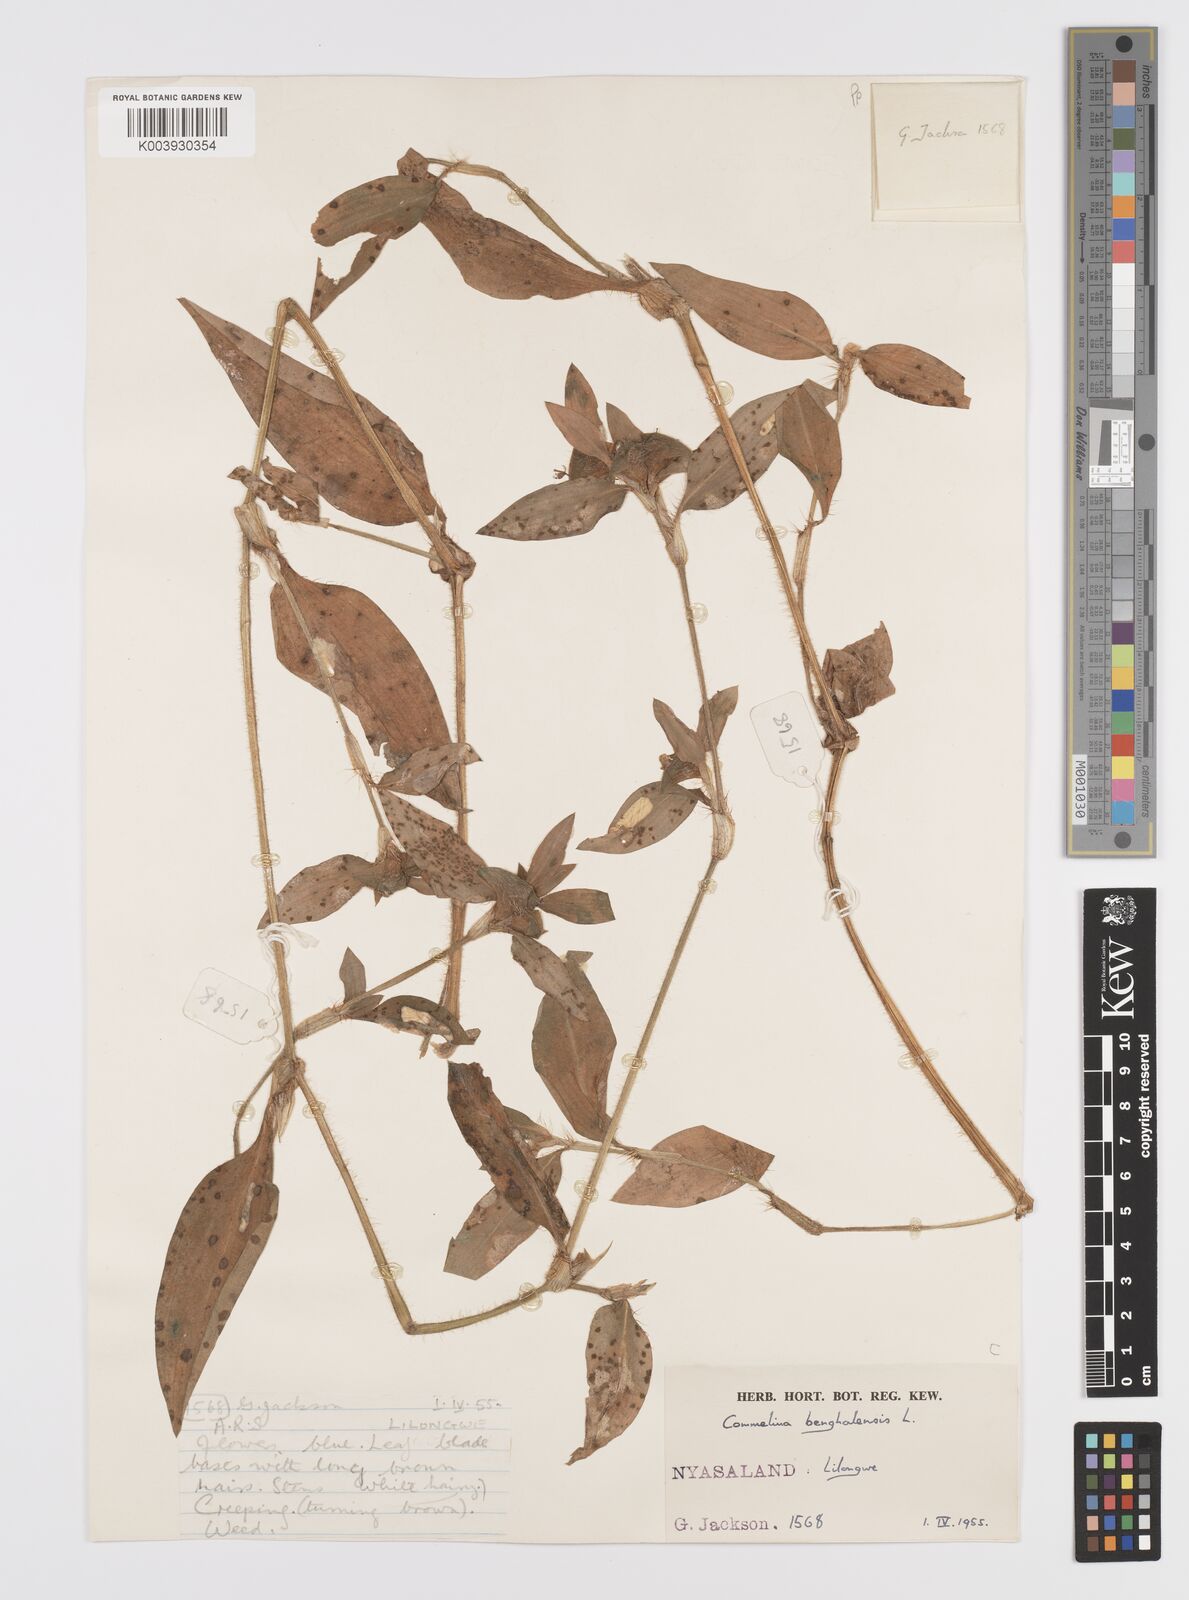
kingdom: Plantae
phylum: Tracheophyta
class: Liliopsida
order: Commelinales
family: Commelinaceae
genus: Commelina
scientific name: Commelina benghalensis
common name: Jio
